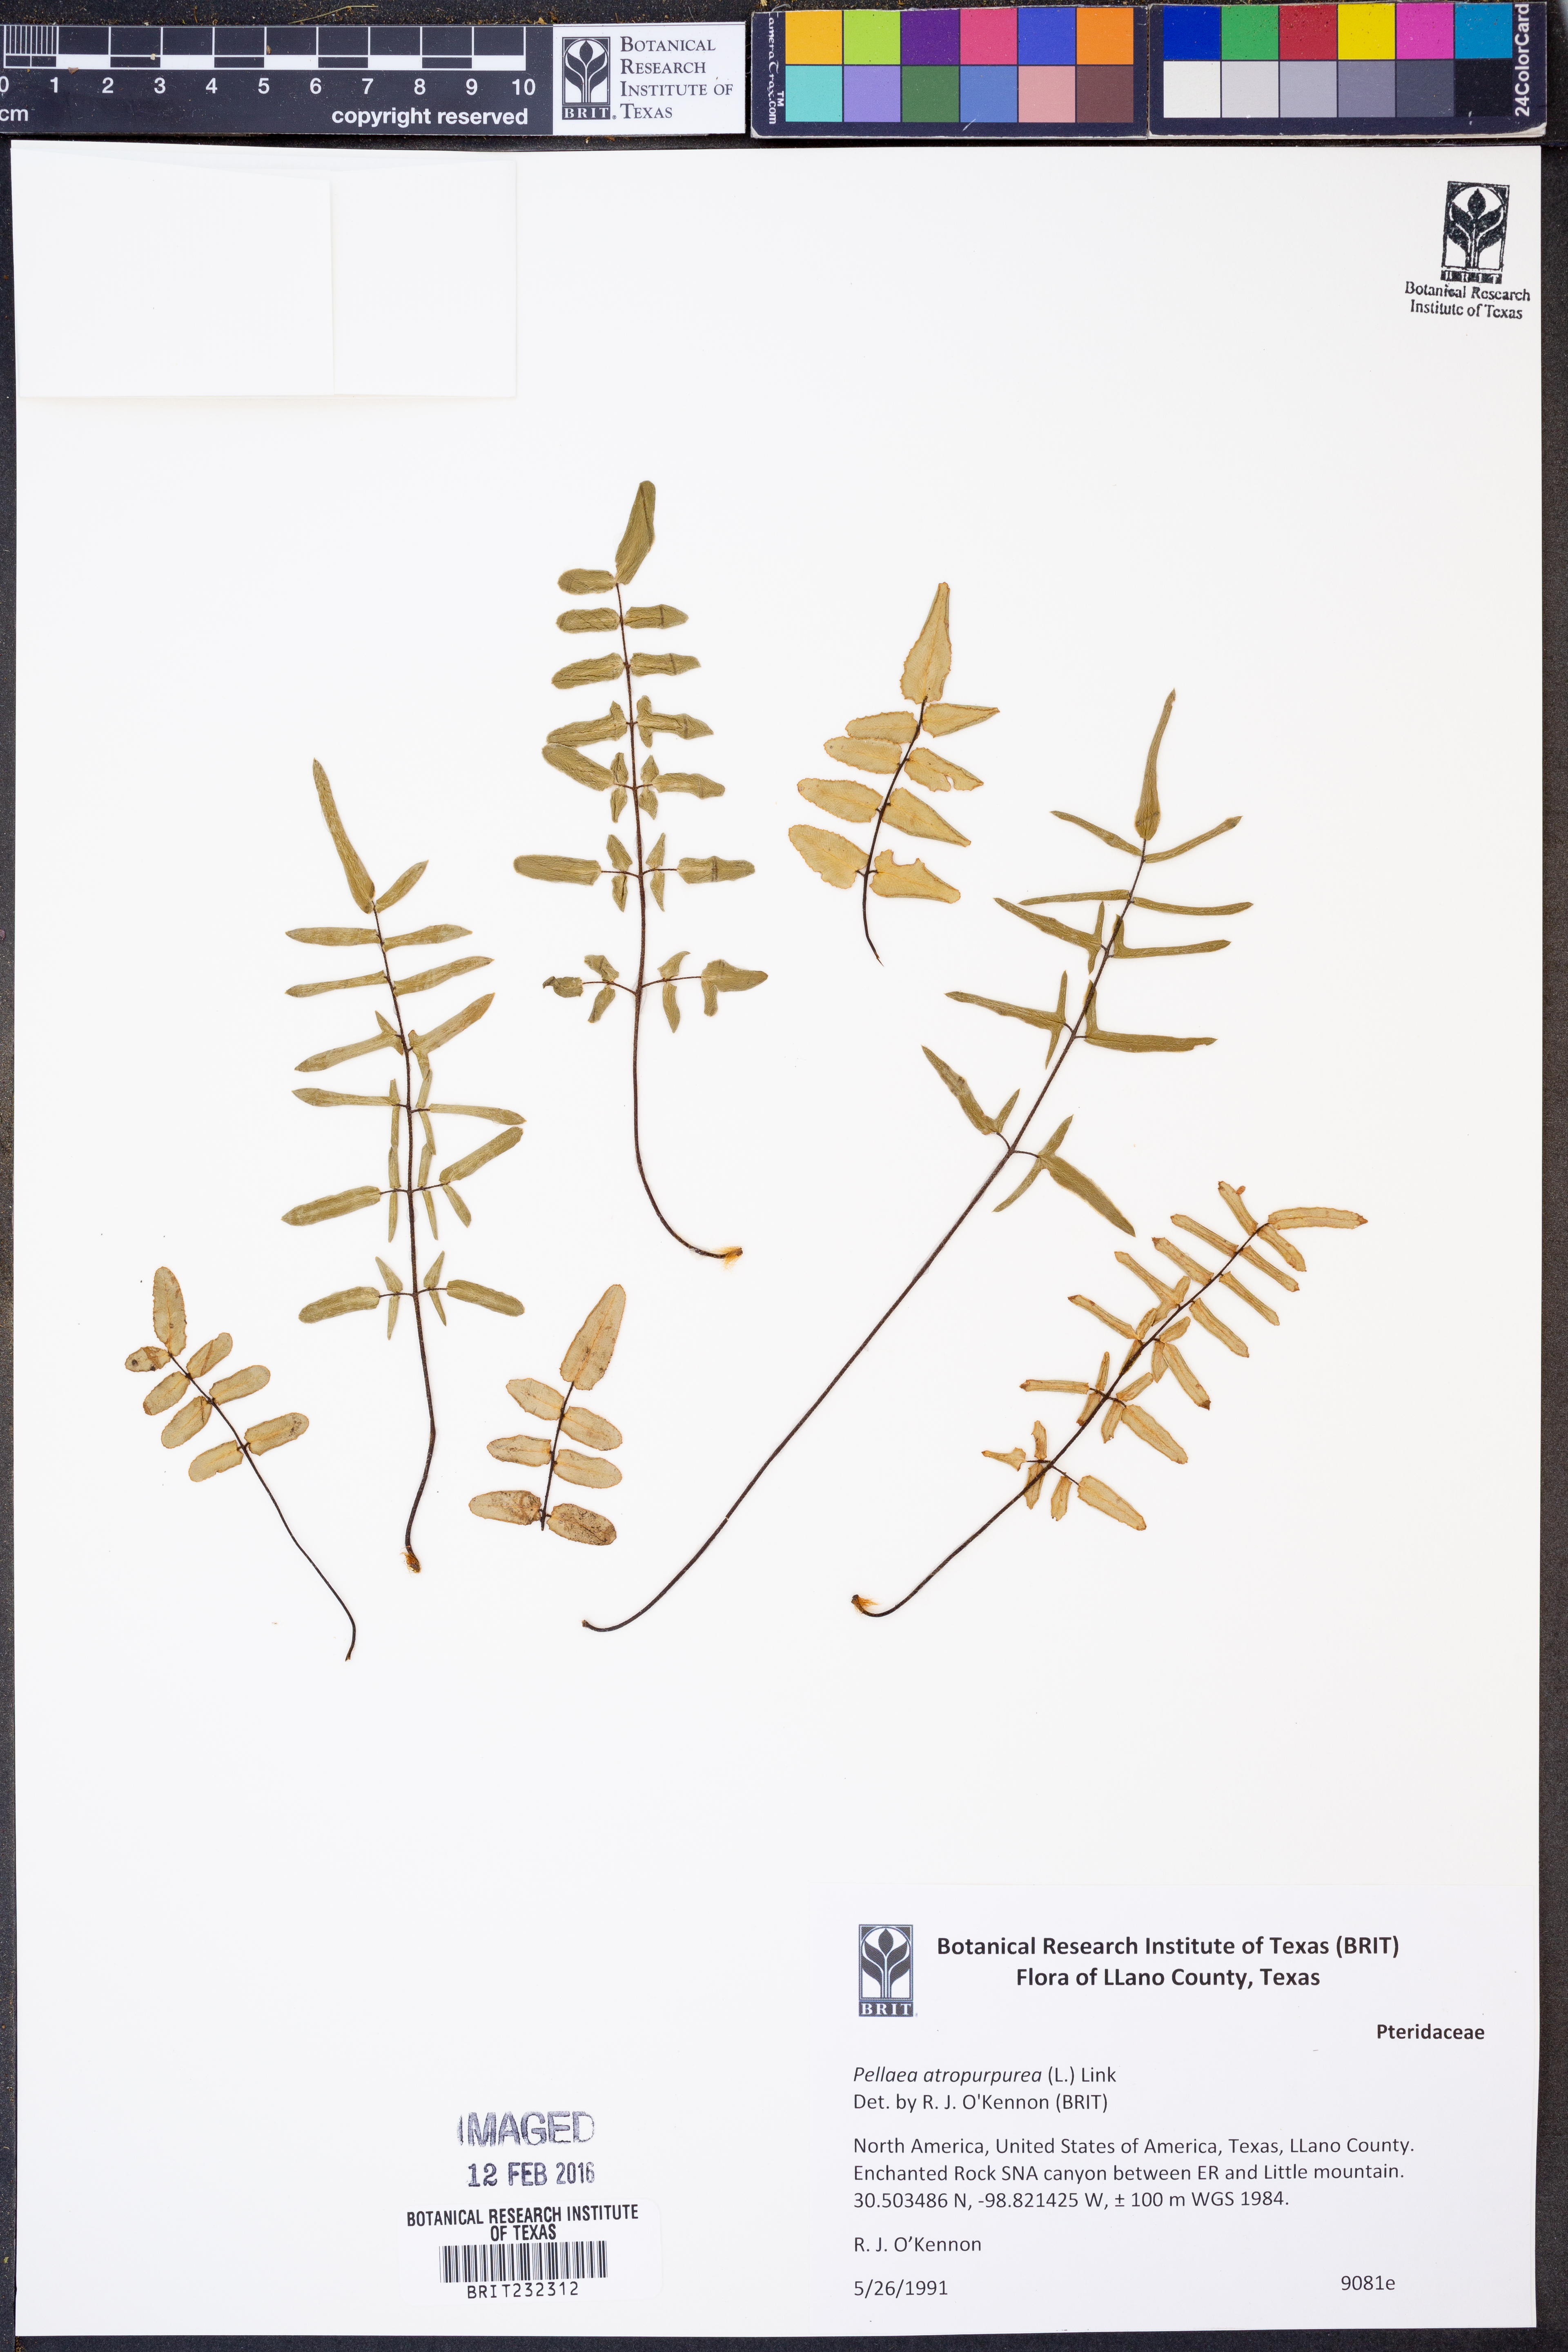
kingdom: Plantae
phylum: Tracheophyta
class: Polypodiopsida
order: Polypodiales
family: Pteridaceae
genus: Pellaea
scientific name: Pellaea atropurpurea
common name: Hairy cliffbrake
